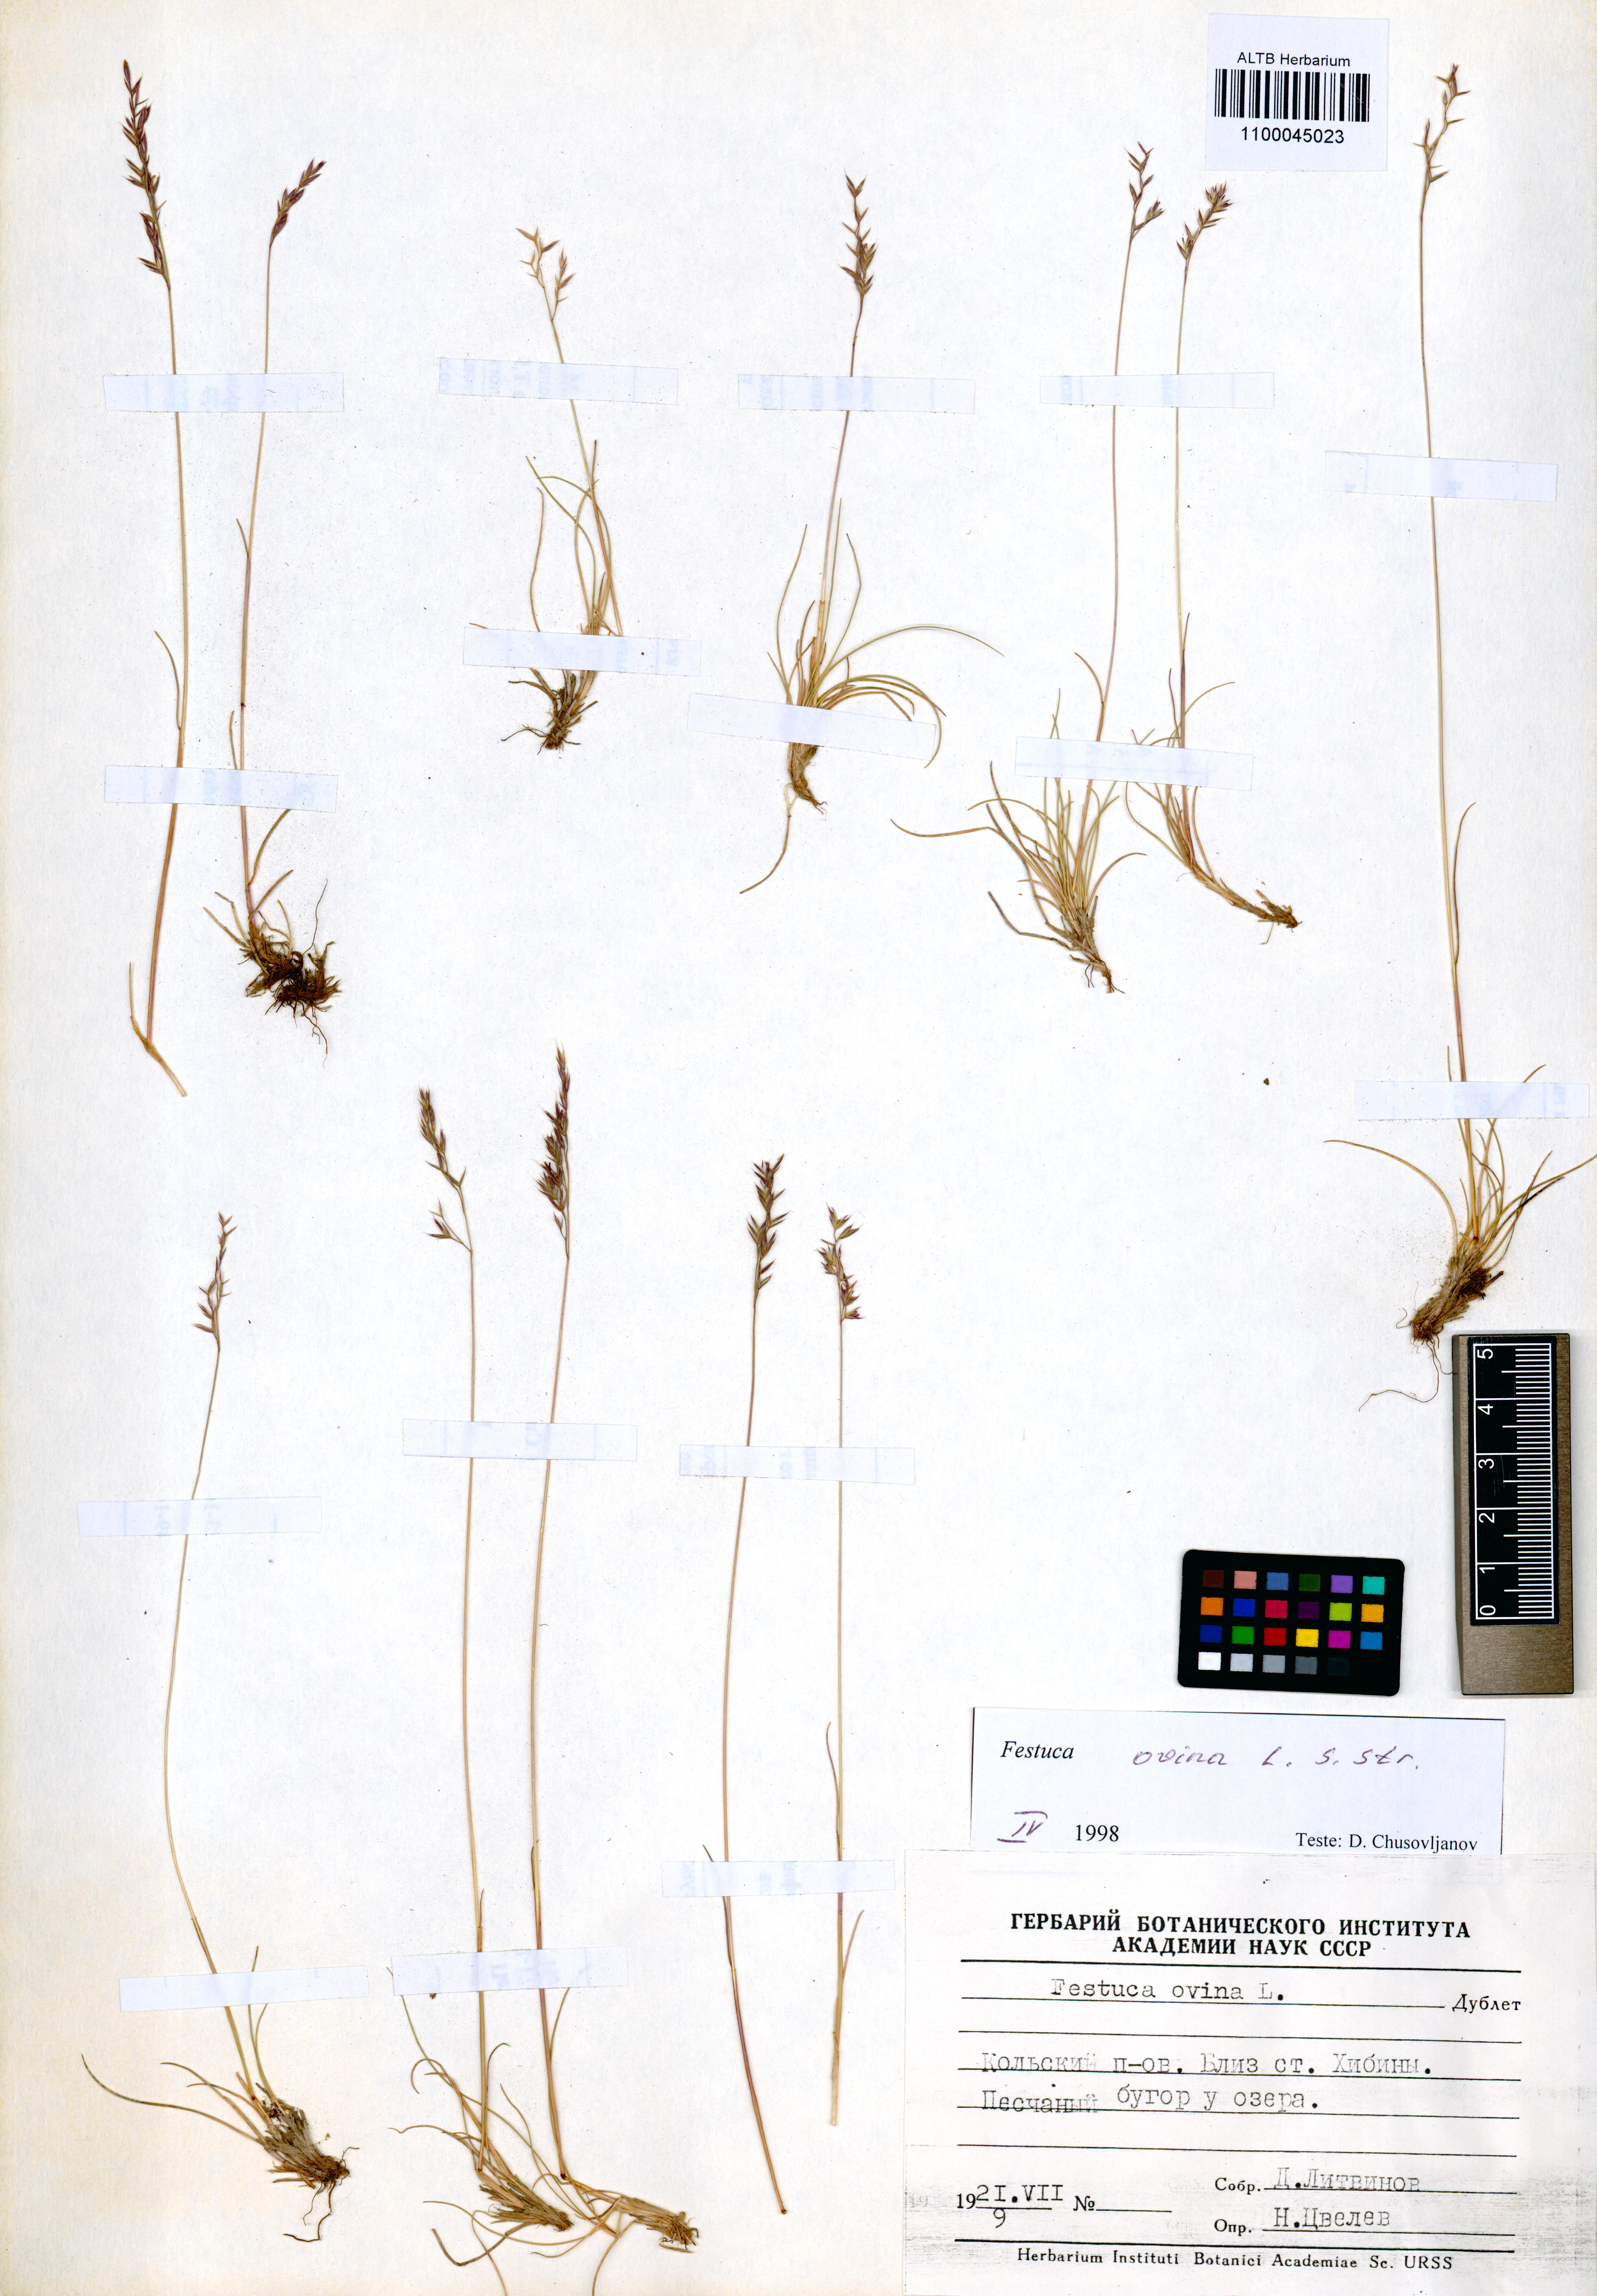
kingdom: Plantae
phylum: Tracheophyta
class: Liliopsida
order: Poales
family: Poaceae
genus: Festuca
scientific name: Festuca ovina
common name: Sheep fescue
